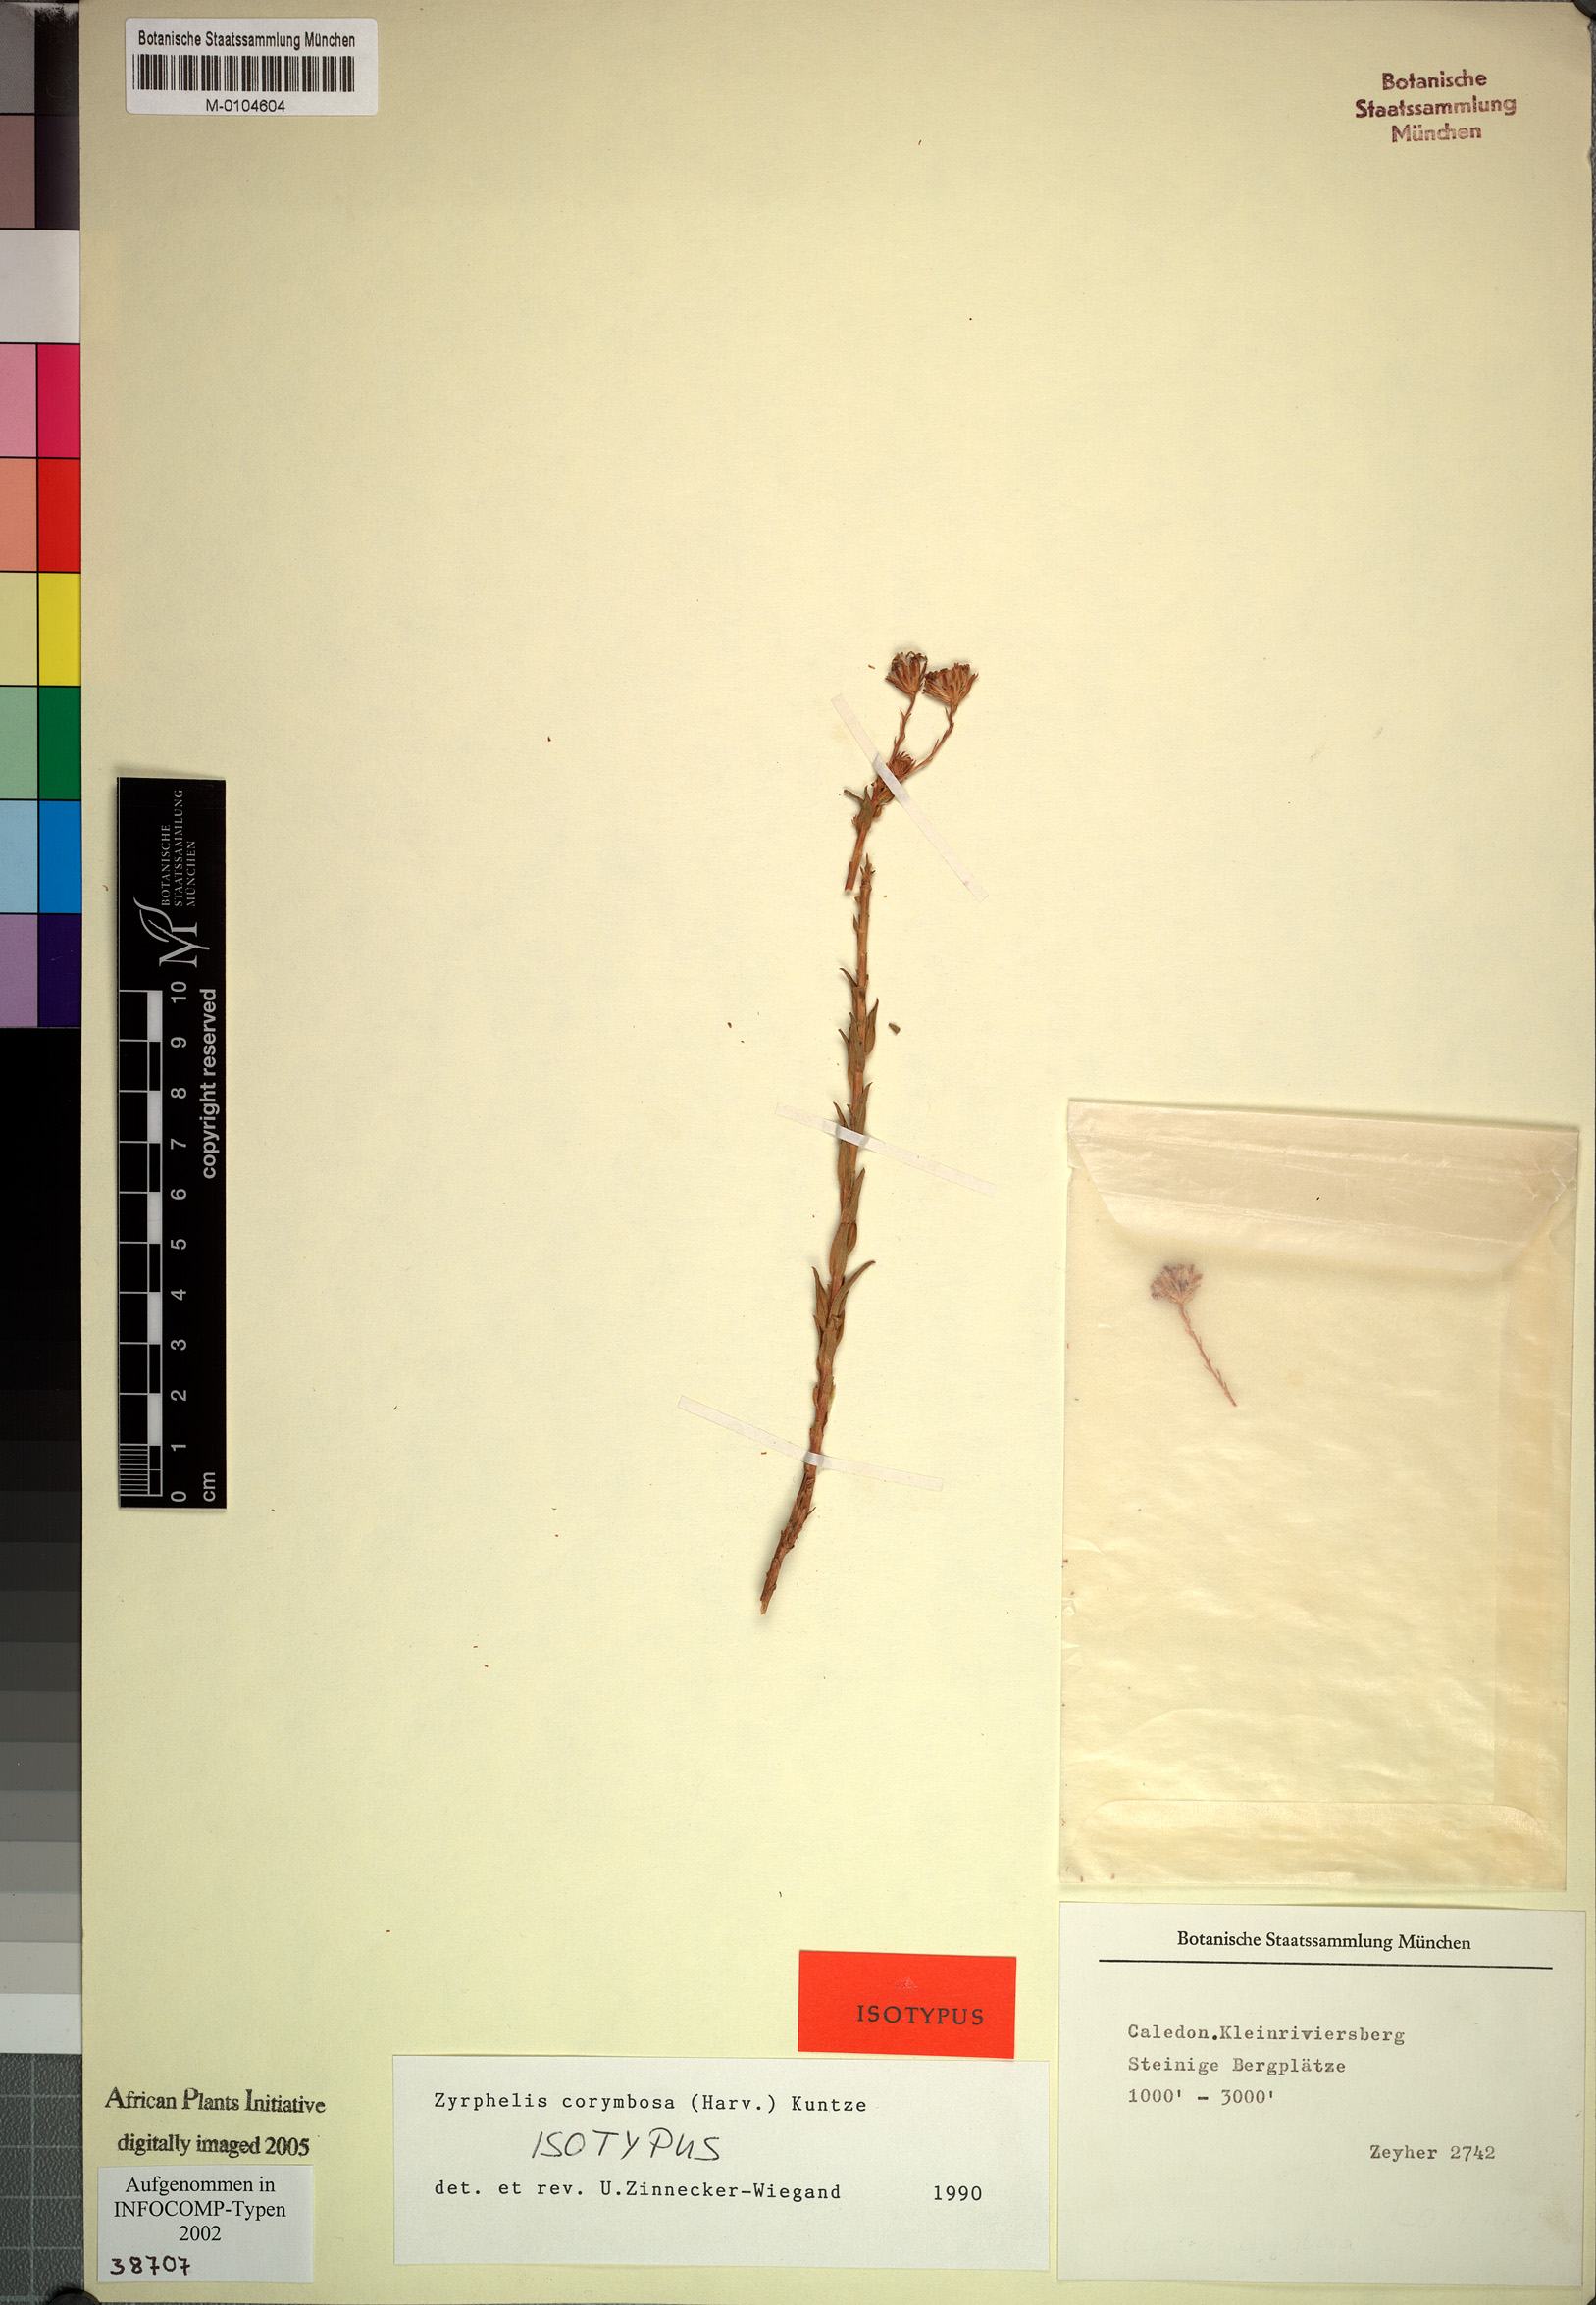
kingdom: Plantae
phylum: Tracheophyta
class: Magnoliopsida
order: Asterales
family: Asteraceae
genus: Zyrphelis
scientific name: Zyrphelis corymbosa
